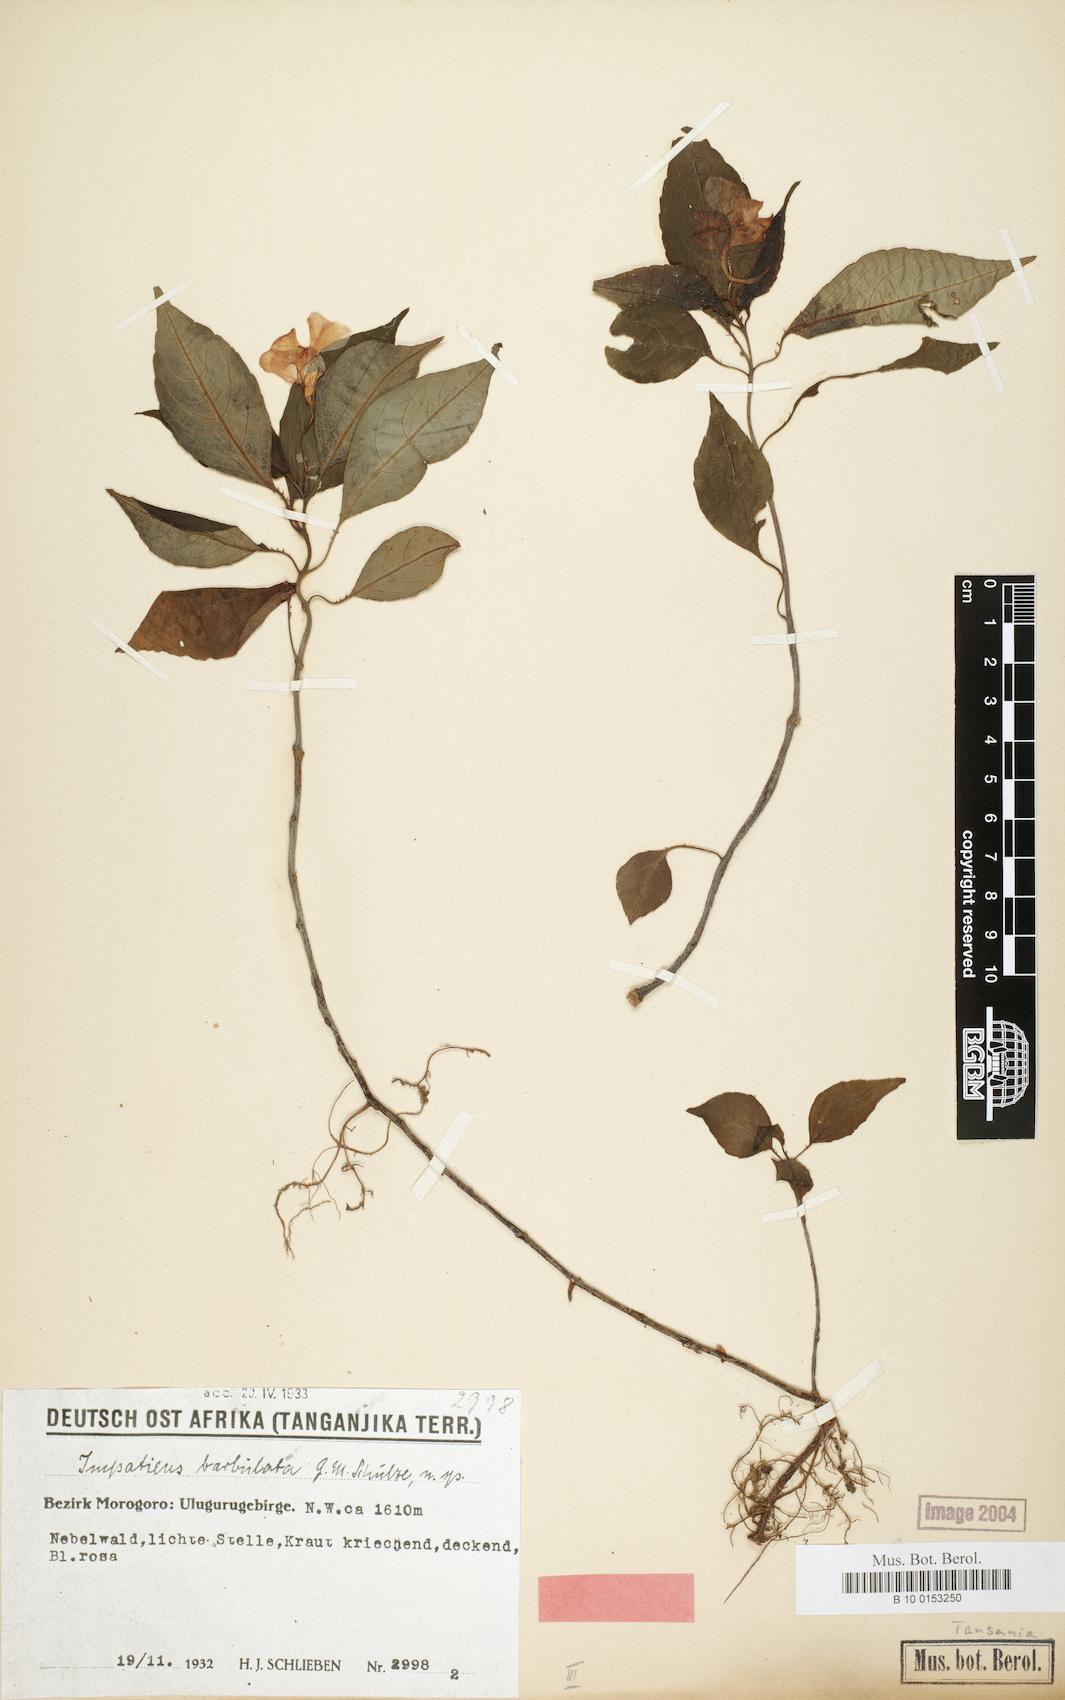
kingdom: Plantae
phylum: Tracheophyta
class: Magnoliopsida
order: Ericales
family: Balsaminaceae
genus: Impatiens
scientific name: Impatiens barbulata
